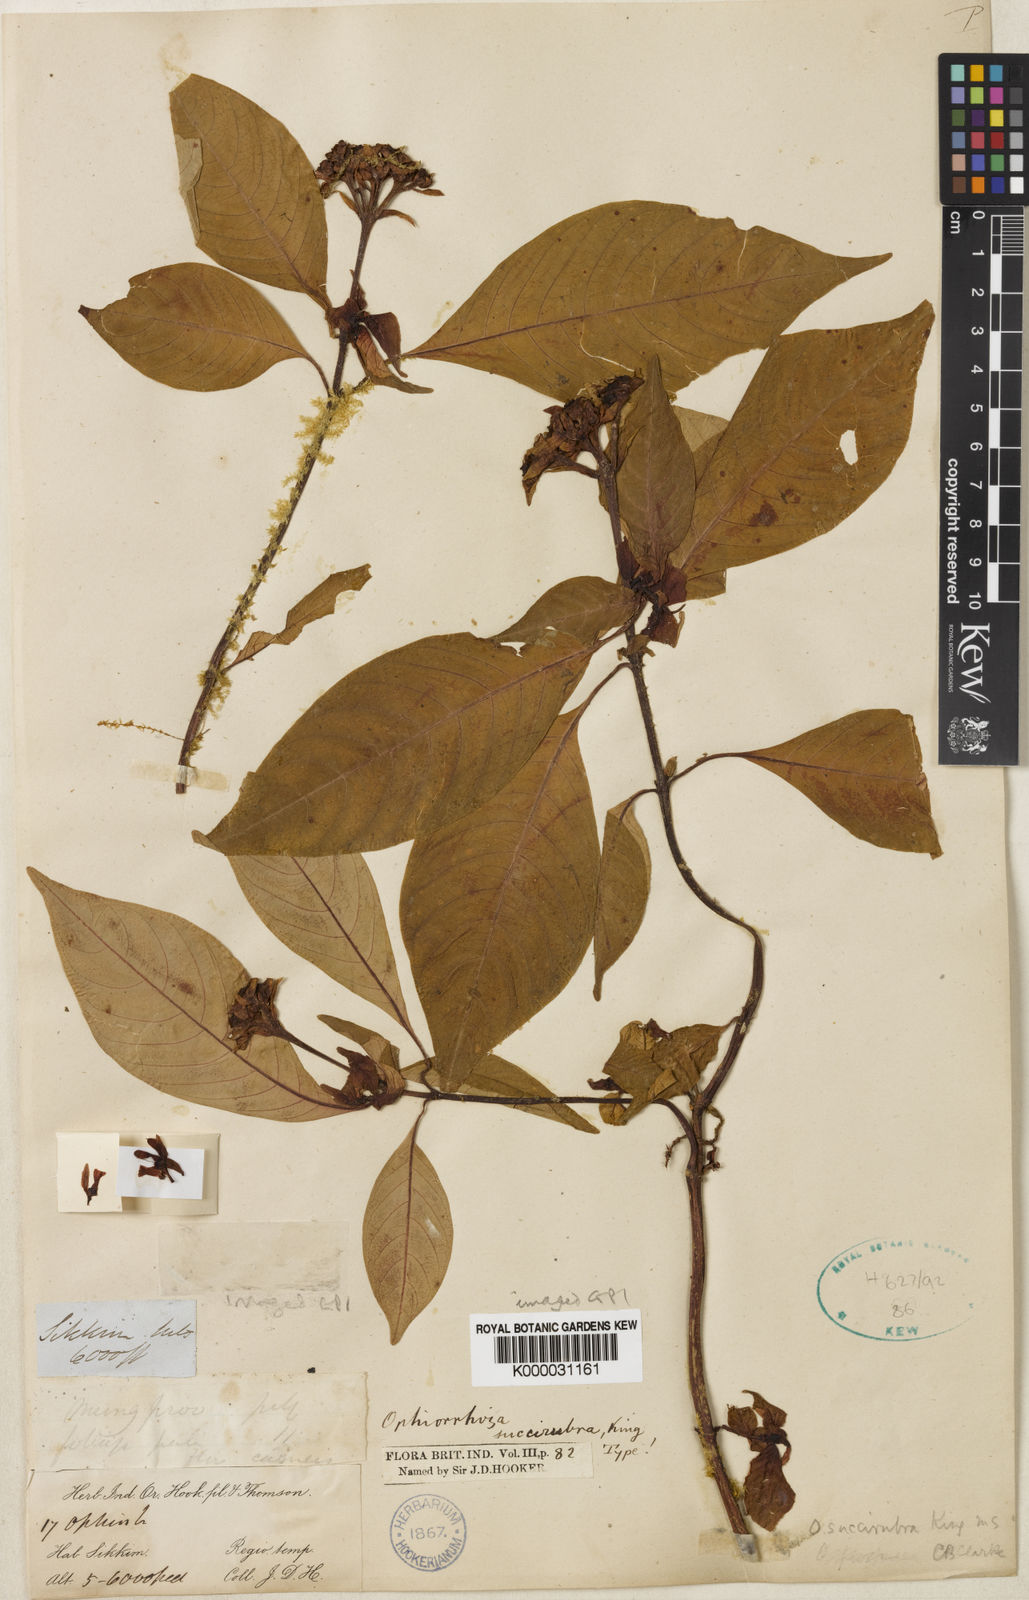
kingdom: Plantae
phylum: Tracheophyta
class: Magnoliopsida
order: Gentianales
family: Rubiaceae
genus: Ophiorrhiza
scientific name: Ophiorrhiza
